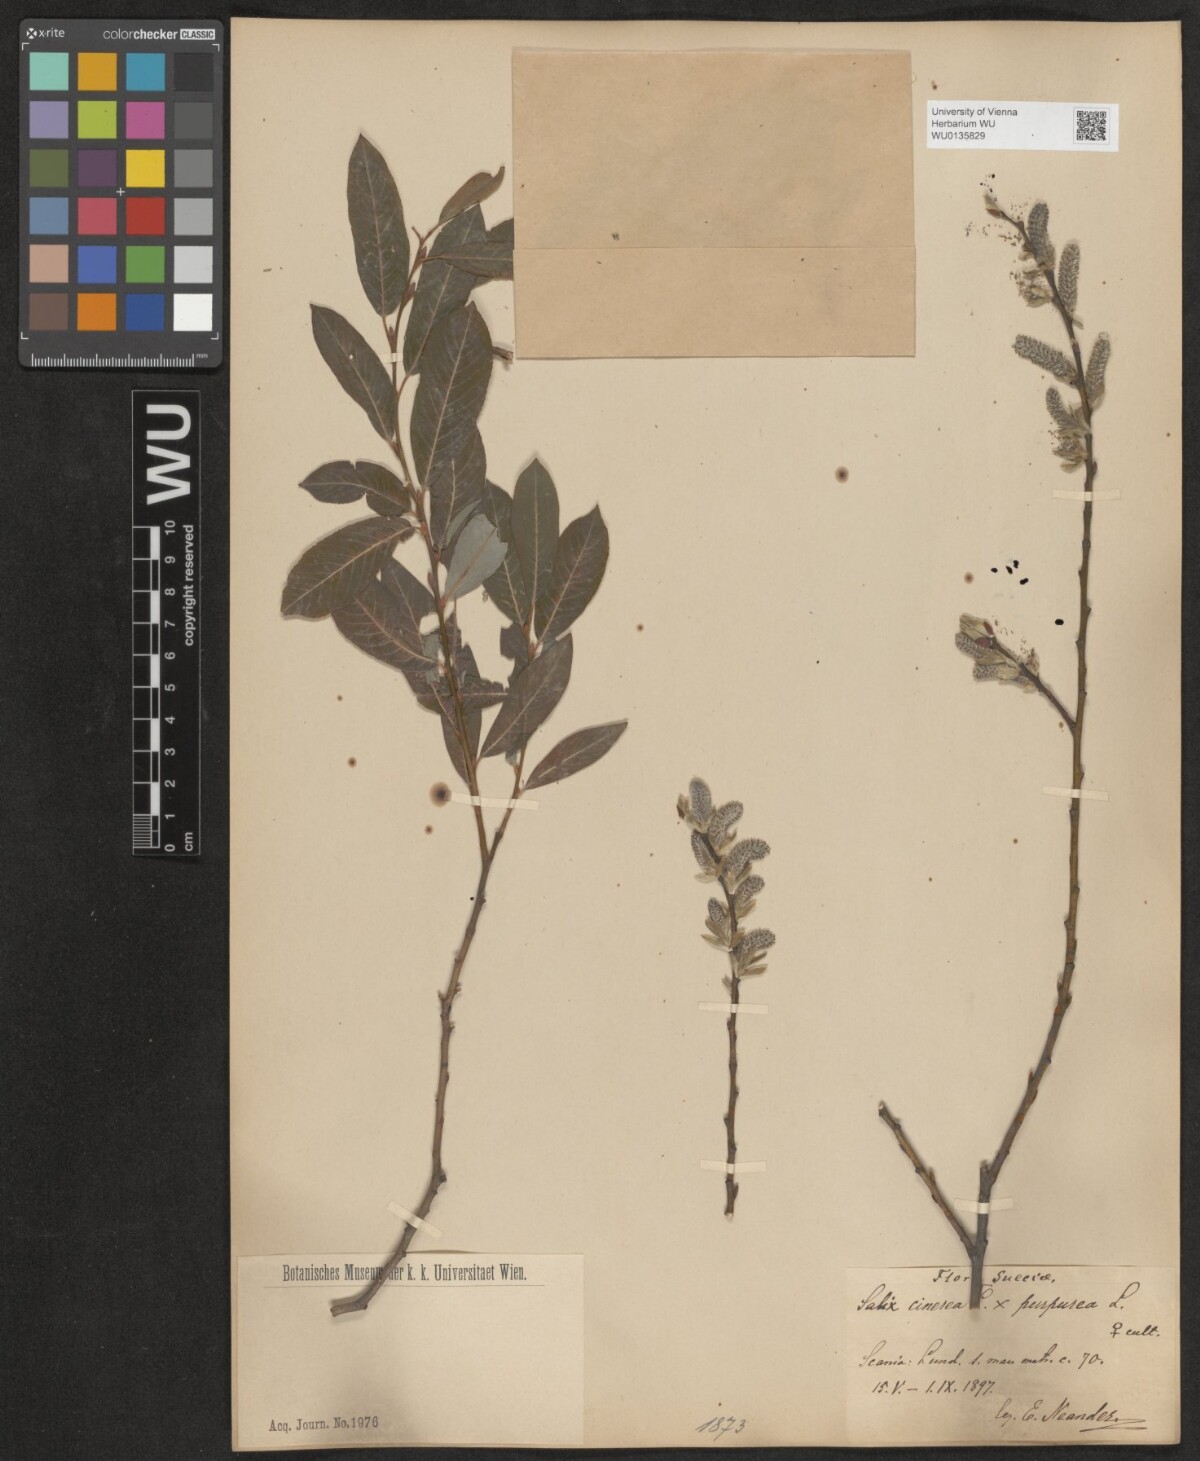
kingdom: Plantae
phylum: Tracheophyta
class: Magnoliopsida
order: Malpighiales
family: Salicaceae
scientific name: Salicaceae
